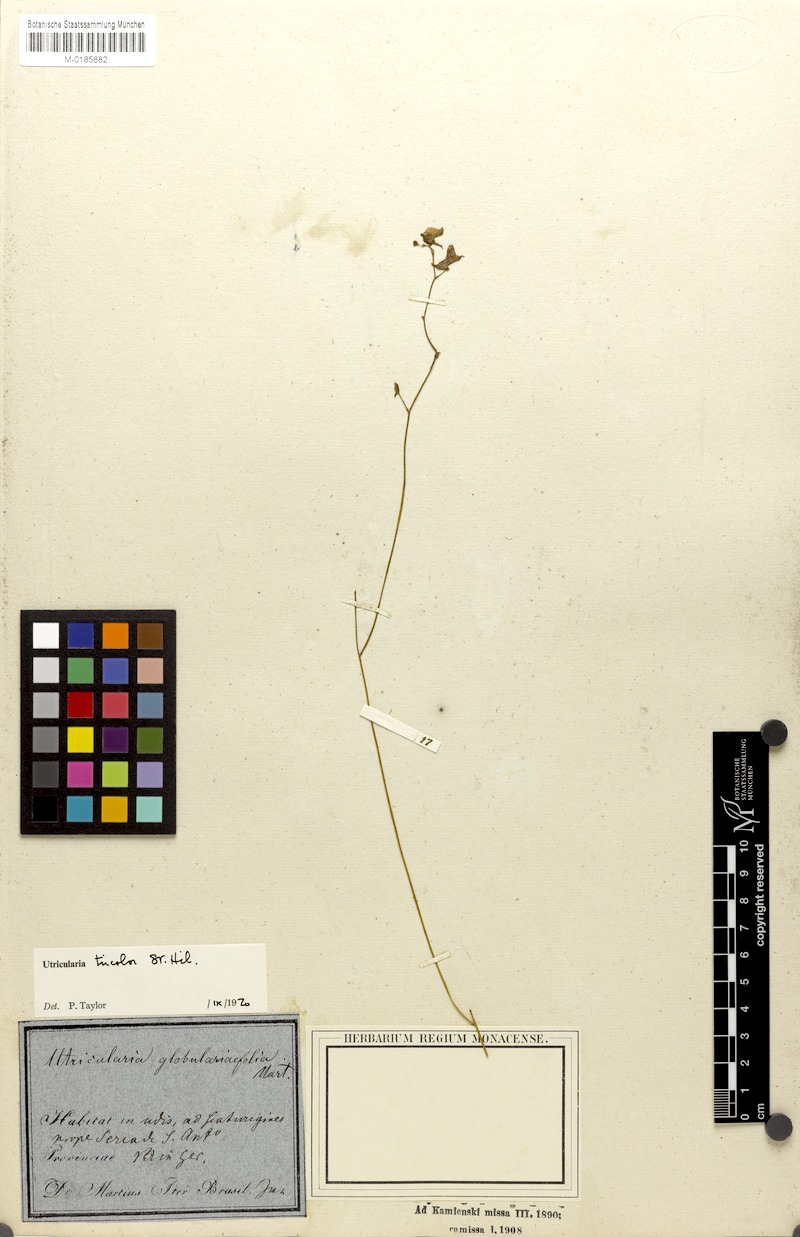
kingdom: Plantae
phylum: Tracheophyta
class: Magnoliopsida
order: Lamiales
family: Lentibulariaceae
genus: Utricularia
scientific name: Utricularia tricolor
